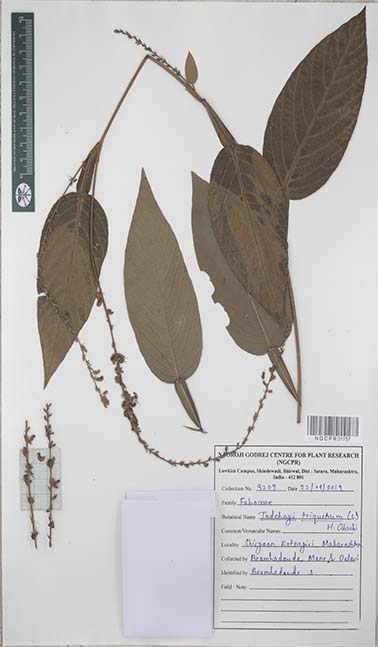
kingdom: Plantae
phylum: Tracheophyta
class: Magnoliopsida
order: Fabales
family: Fabaceae
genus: Tadehagi
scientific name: Tadehagi triquetrum
